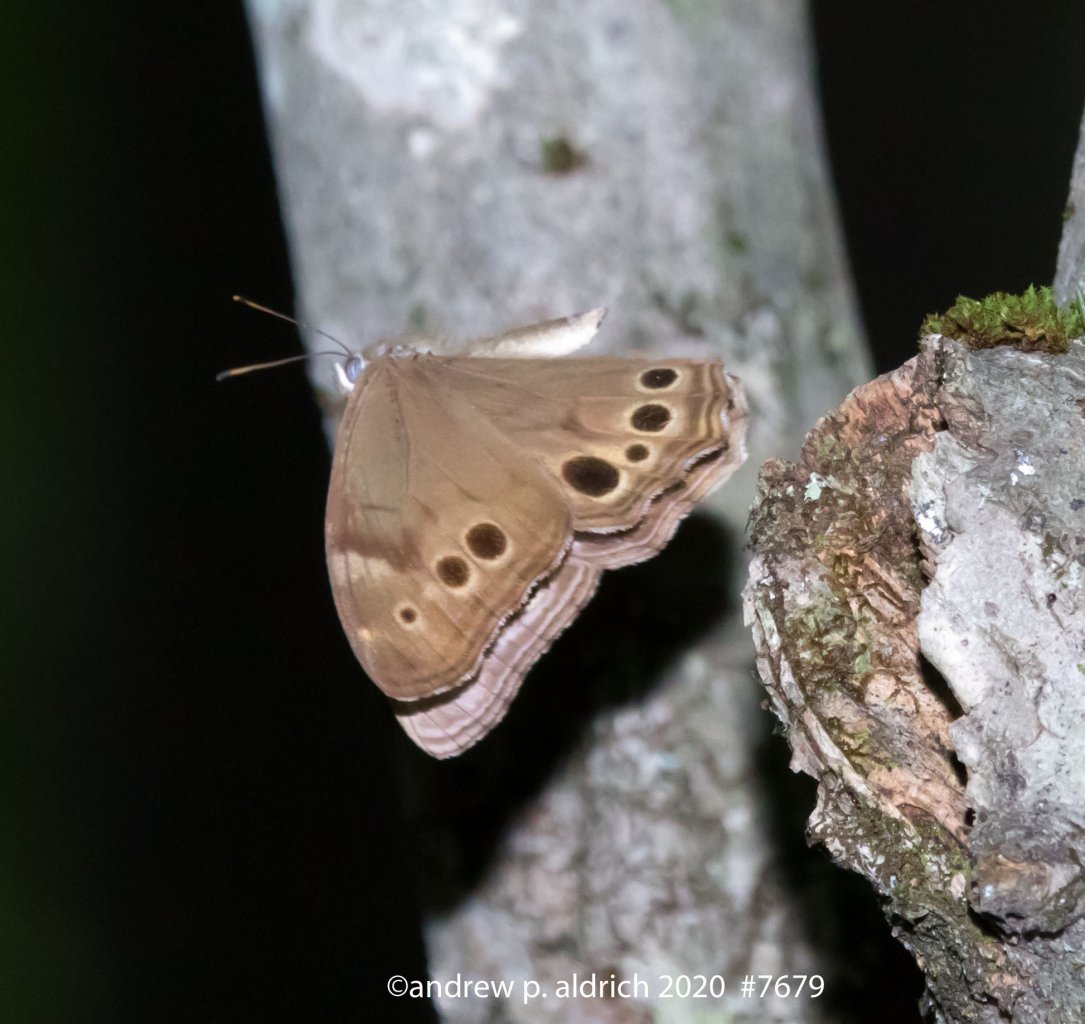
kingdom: Animalia
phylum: Arthropoda
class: Insecta
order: Lepidoptera
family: Nymphalidae
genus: Lethe
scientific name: Lethe anthedon
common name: Northern Pearly-Eye
